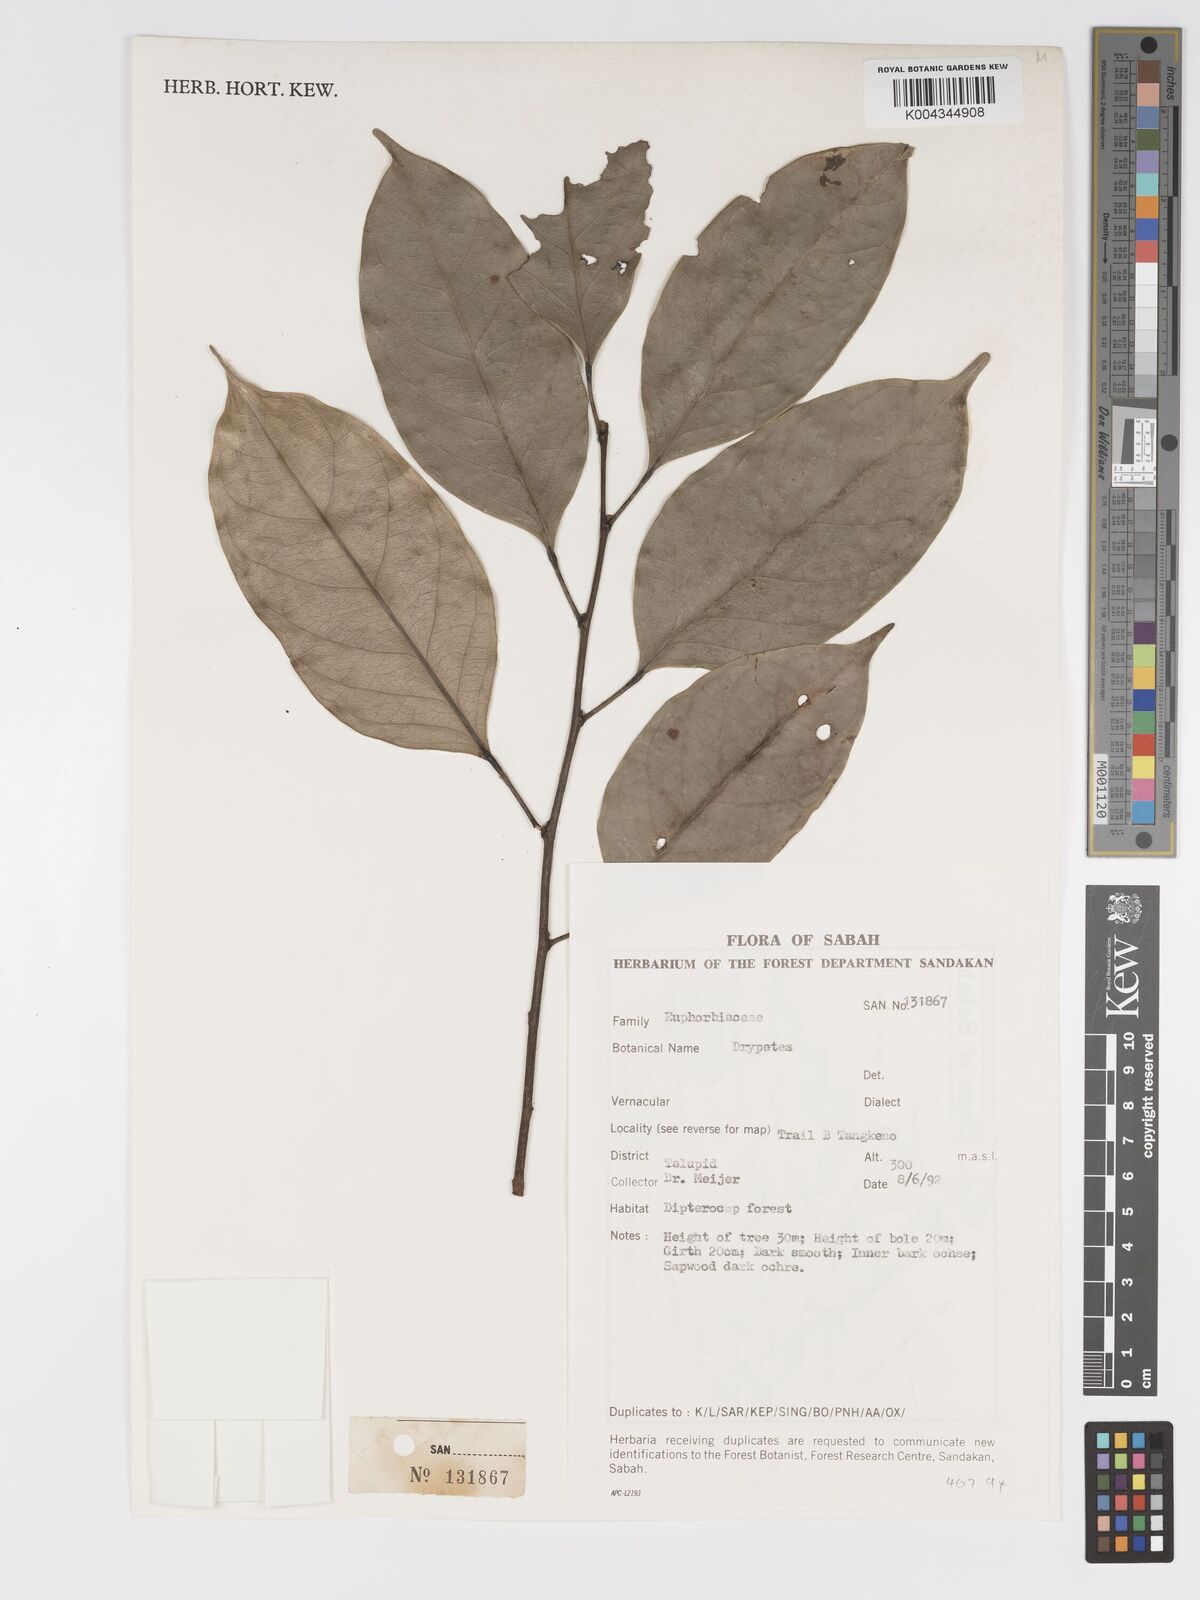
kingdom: Plantae
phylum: Tracheophyta
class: Magnoliopsida
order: Malpighiales
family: Putranjivaceae
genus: Drypetes
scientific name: Drypetes
